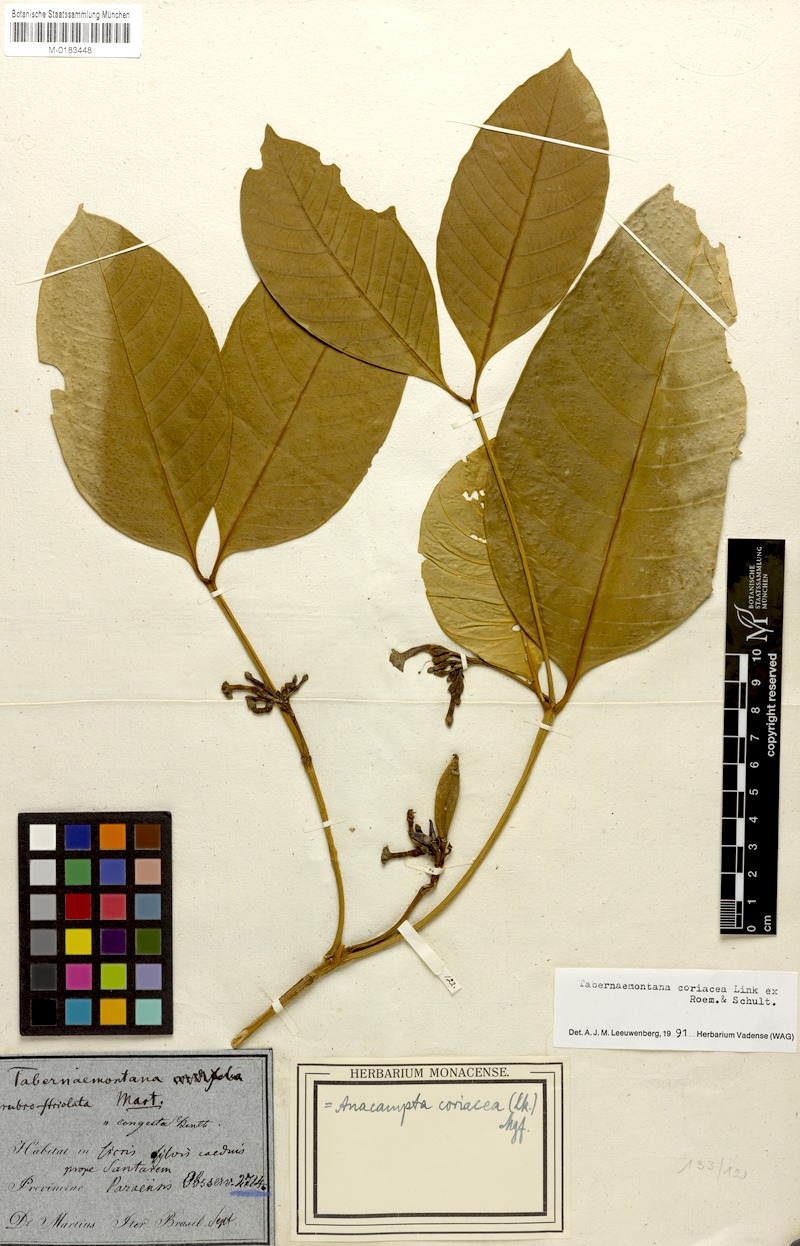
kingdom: Plantae
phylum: Tracheophyta
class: Magnoliopsida
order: Gentianales
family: Apocynaceae
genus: Tabernaemontana
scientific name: Tabernaemontana coriacea
